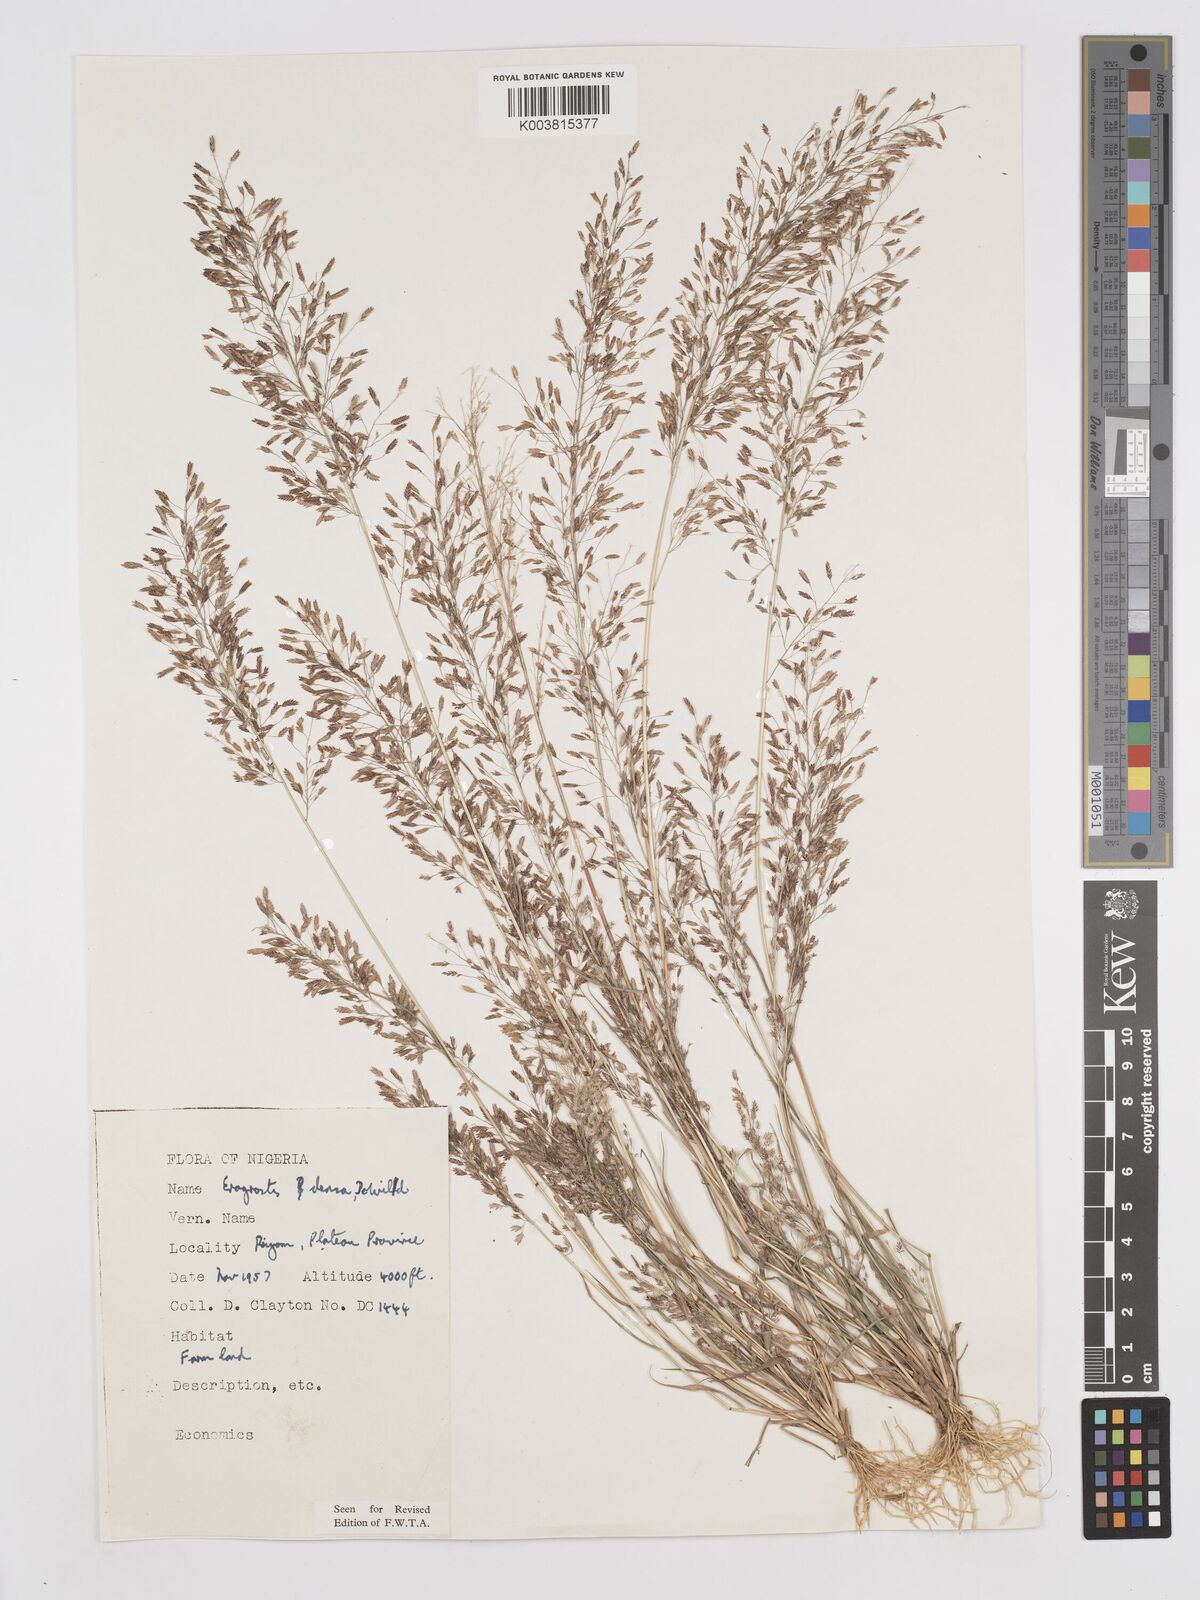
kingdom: Plantae
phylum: Tracheophyta
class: Liliopsida
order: Poales
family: Poaceae
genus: Eragrostis
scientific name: Eragrostis welwitschii
